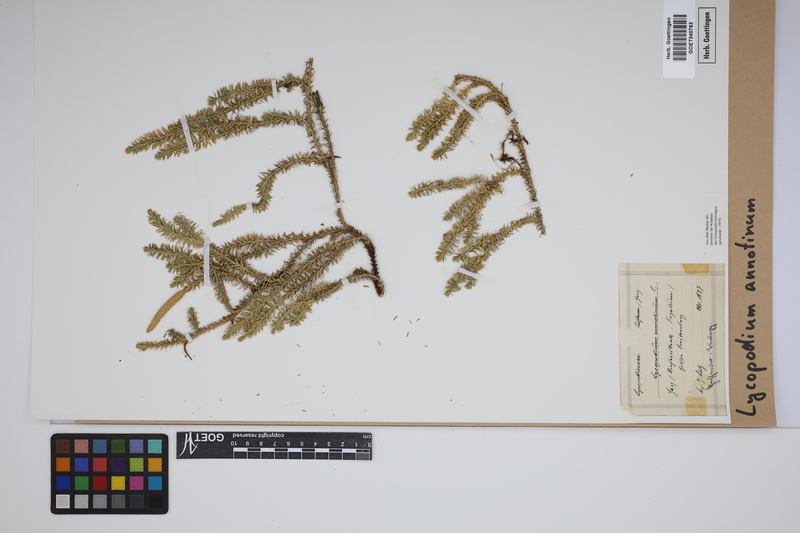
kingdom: Plantae
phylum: Tracheophyta
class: Lycopodiopsida
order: Lycopodiales
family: Lycopodiaceae
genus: Spinulum
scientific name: Spinulum annotinum
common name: Interrupted club-moss
